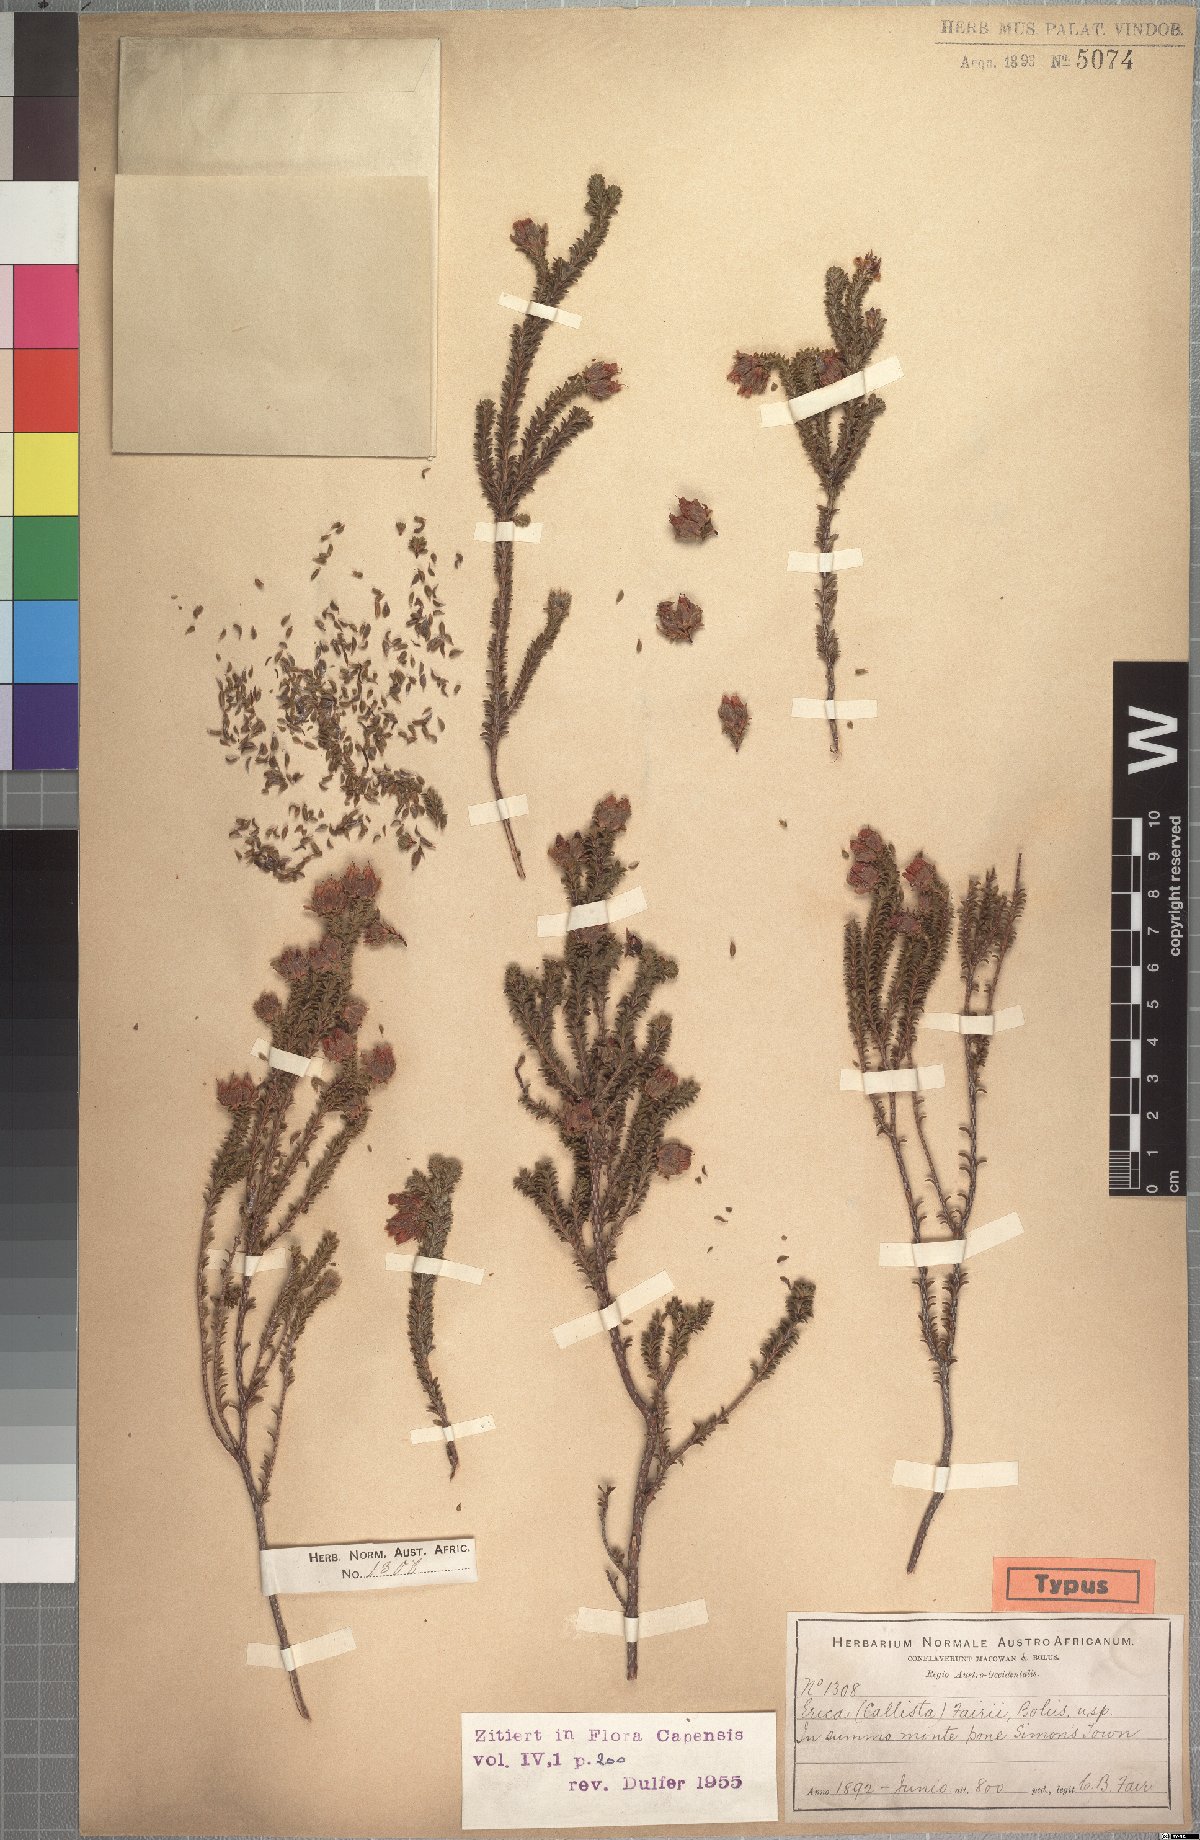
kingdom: Plantae
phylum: Tracheophyta
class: Magnoliopsida
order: Ericales
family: Ericaceae
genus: Erica
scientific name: Erica fairii
